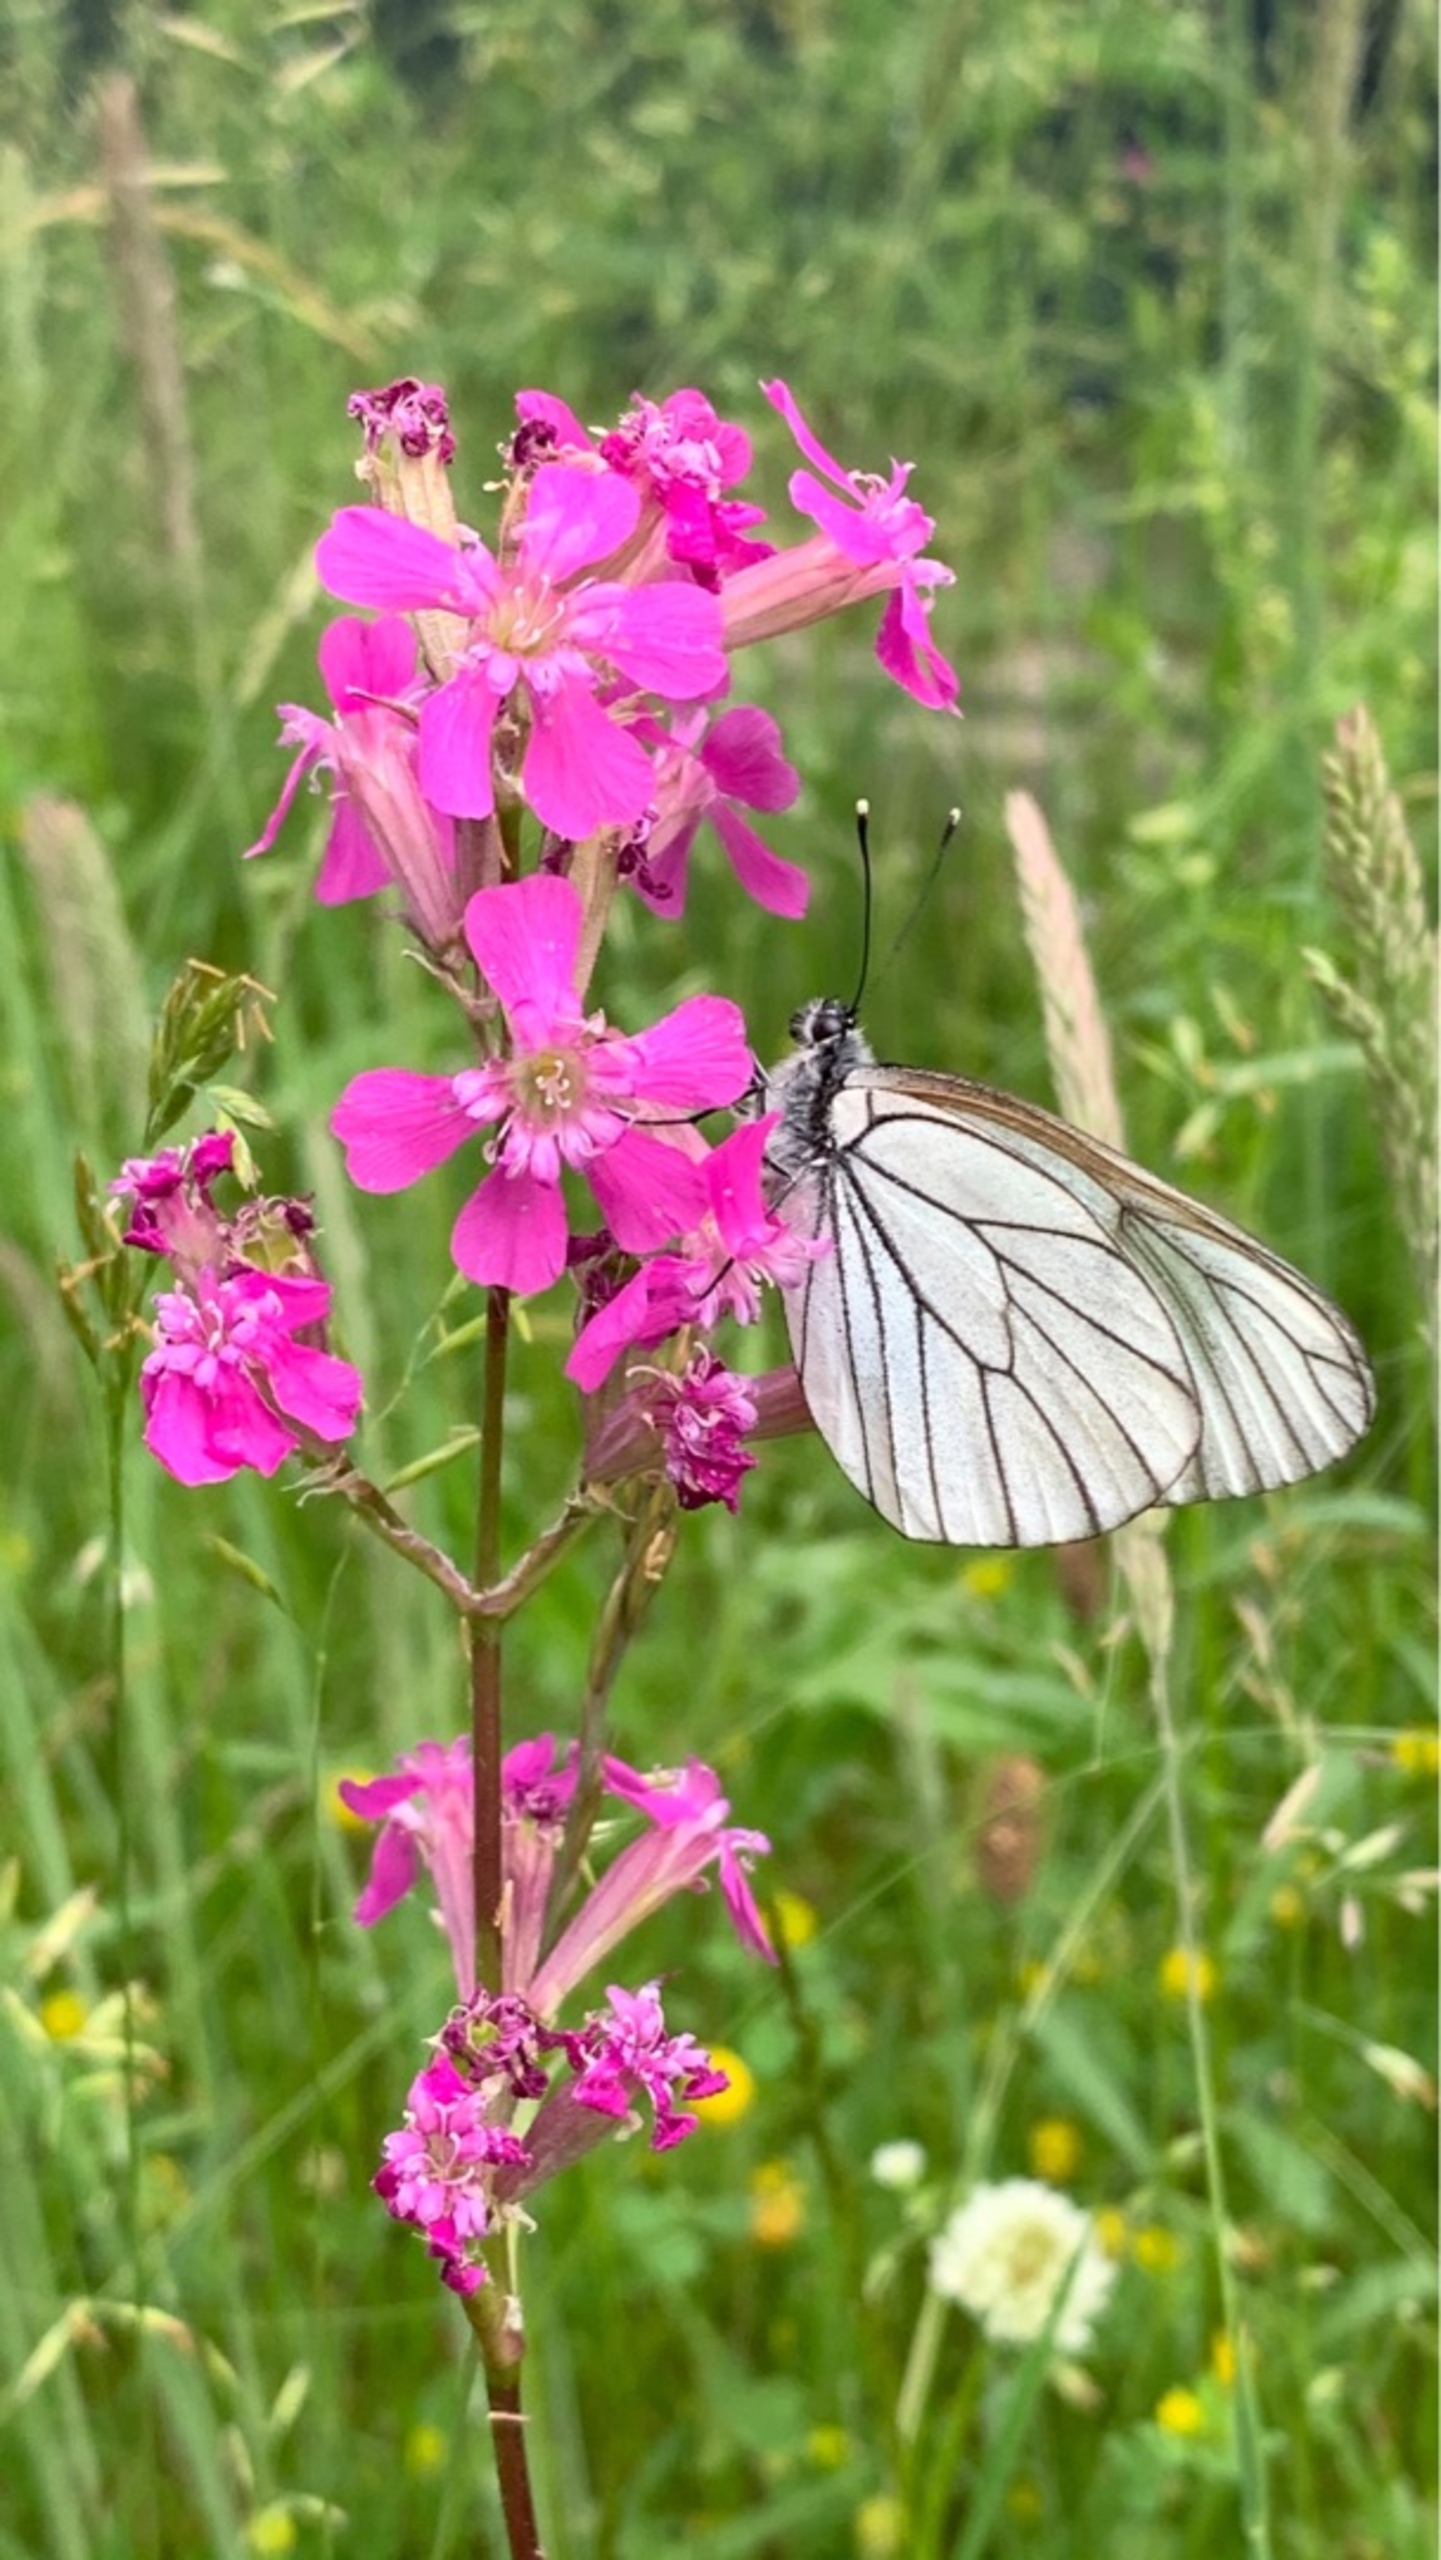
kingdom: Animalia
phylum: Arthropoda
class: Insecta
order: Lepidoptera
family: Pieridae
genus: Aporia
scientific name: Aporia crataegi
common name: Sortåret hvidvinge
